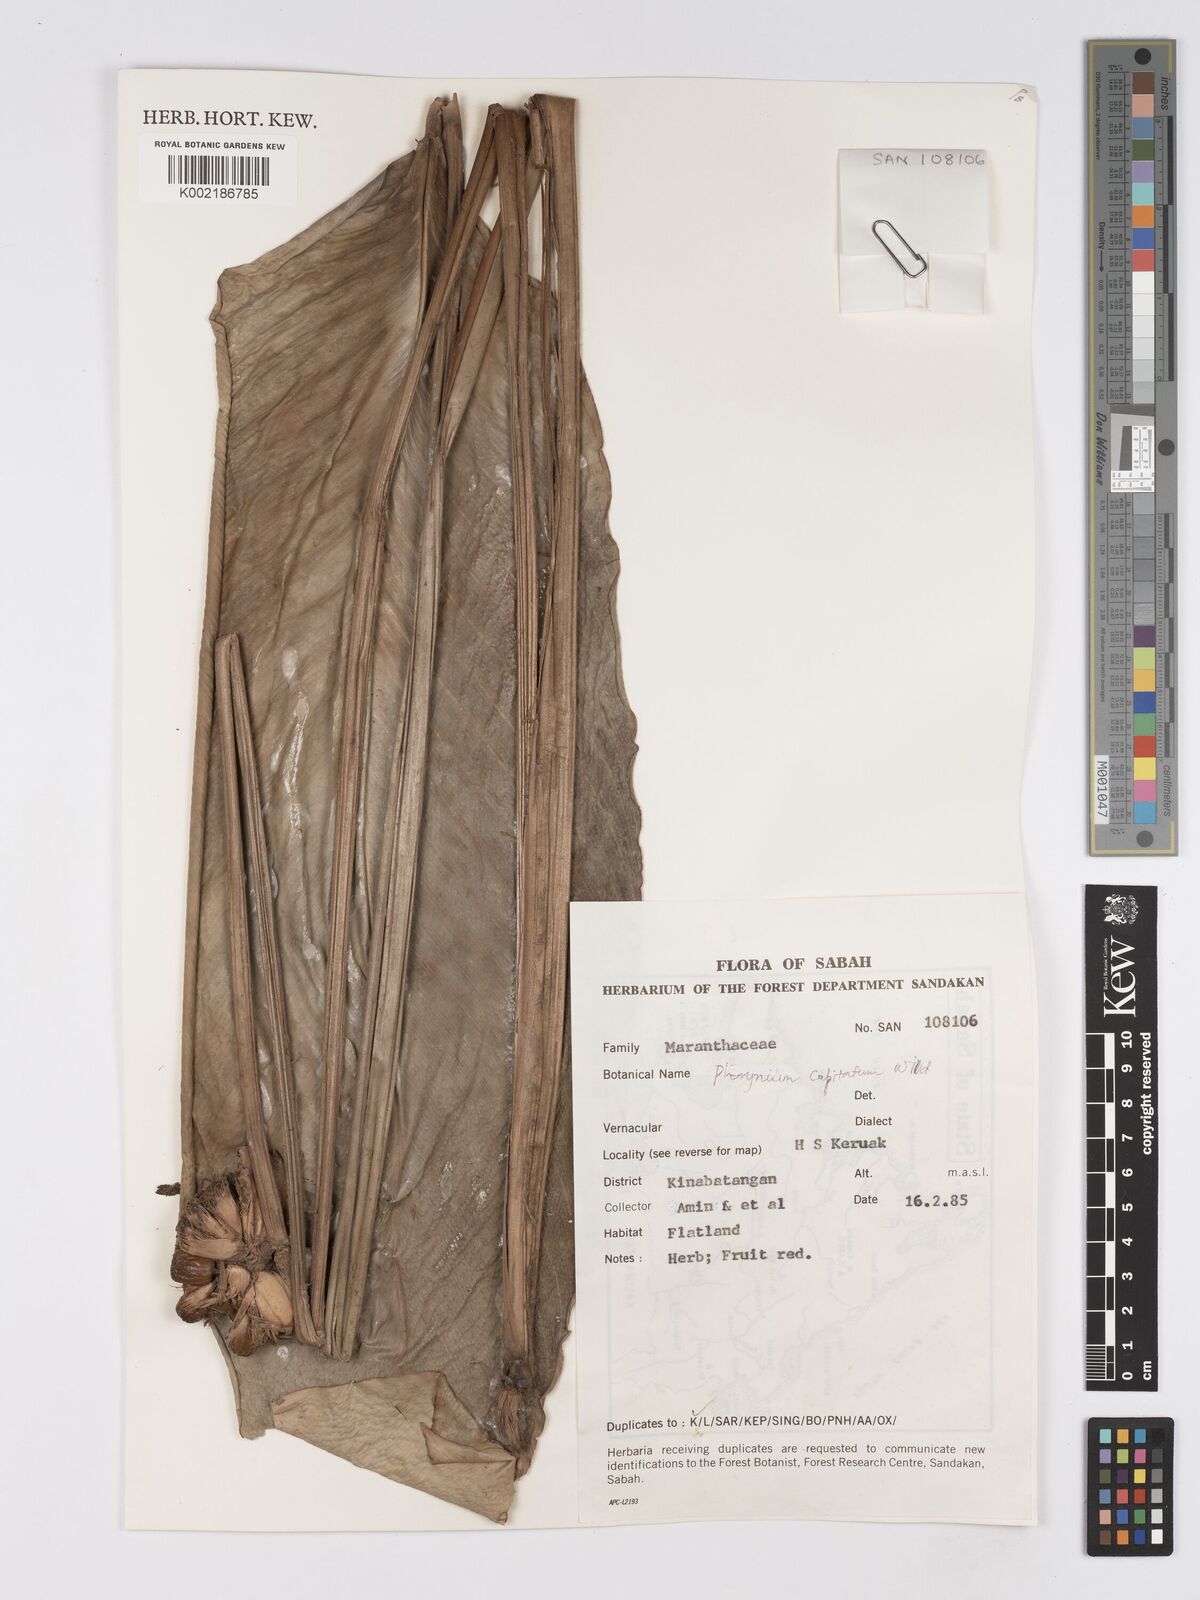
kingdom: Plantae
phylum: Tracheophyta
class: Liliopsida
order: Zingiberales
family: Marantaceae
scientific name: Marantaceae
